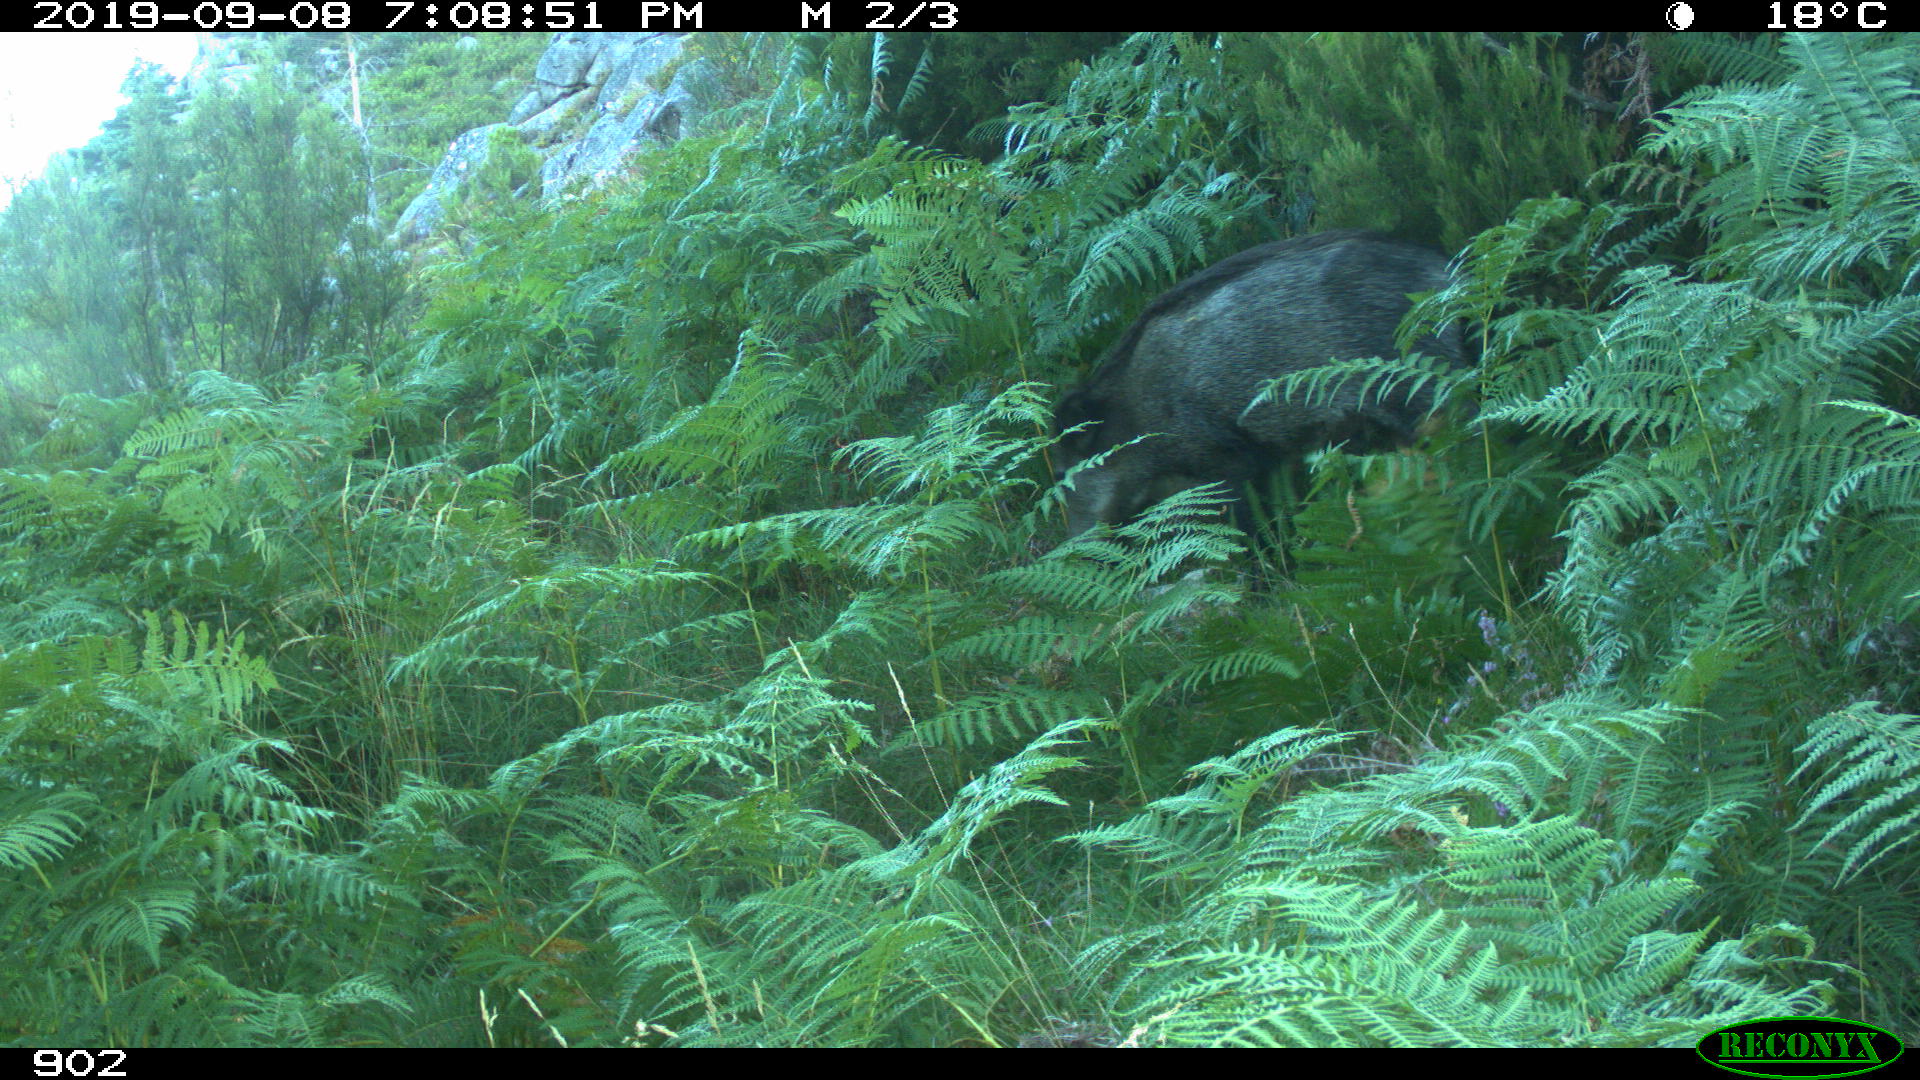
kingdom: Animalia
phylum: Chordata
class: Mammalia
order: Artiodactyla
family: Suidae
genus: Sus
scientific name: Sus scrofa
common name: Wild boar
